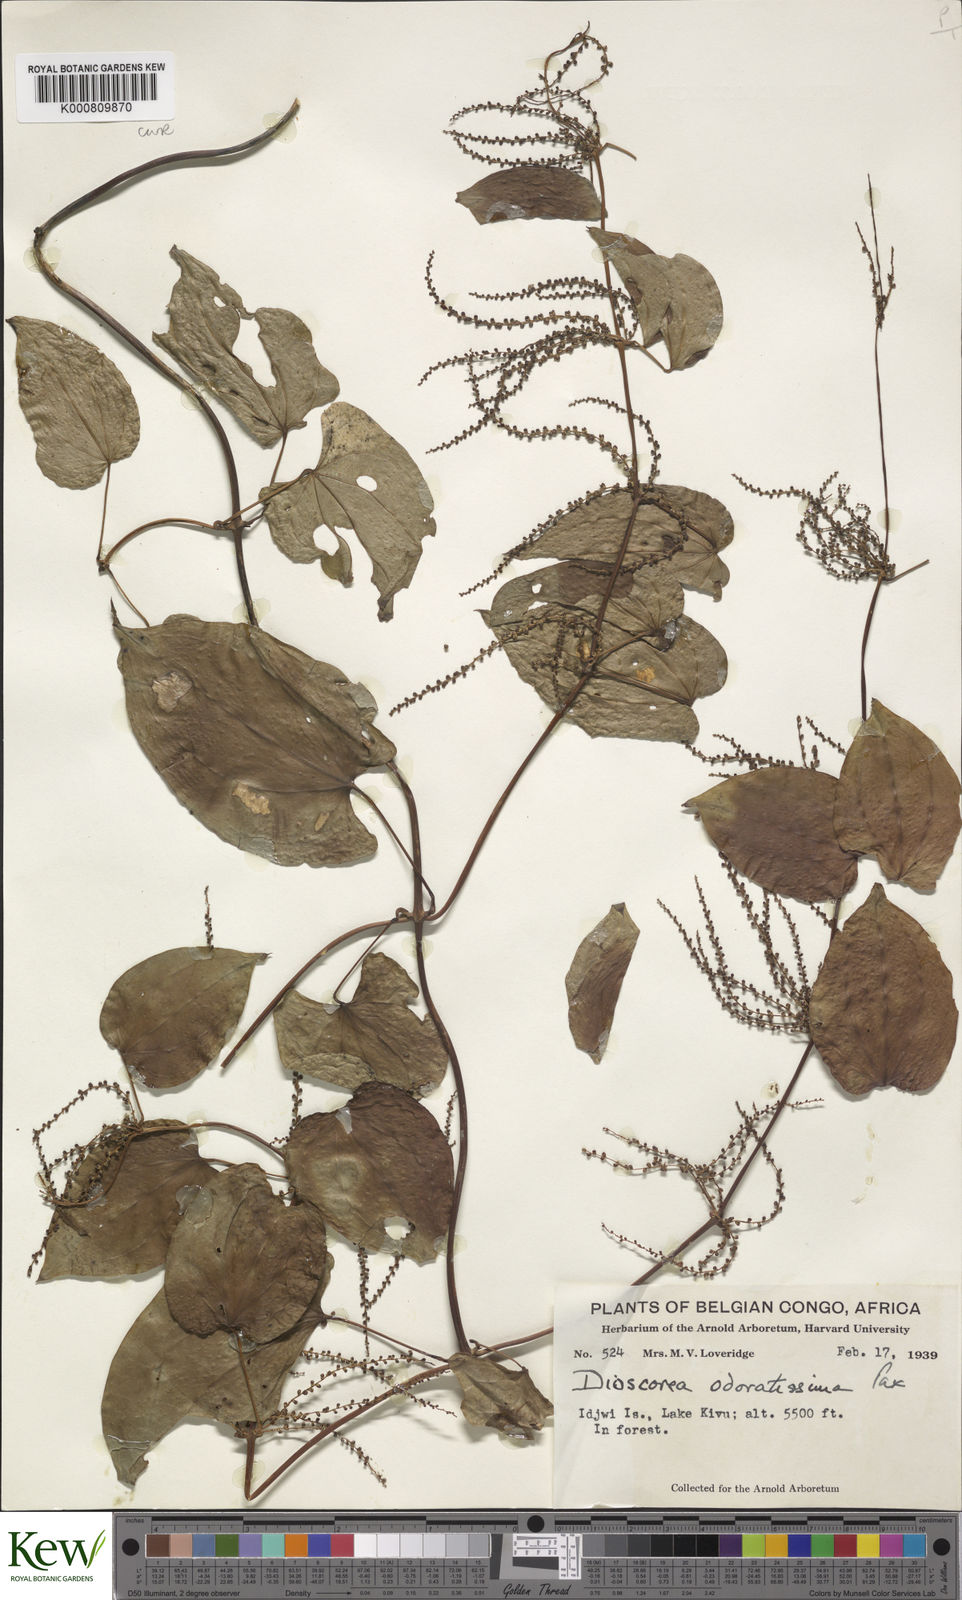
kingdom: Plantae
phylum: Tracheophyta
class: Liliopsida
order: Dioscoreales
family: Dioscoreaceae
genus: Dioscorea
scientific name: Dioscorea praehensilis
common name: Bush yam
